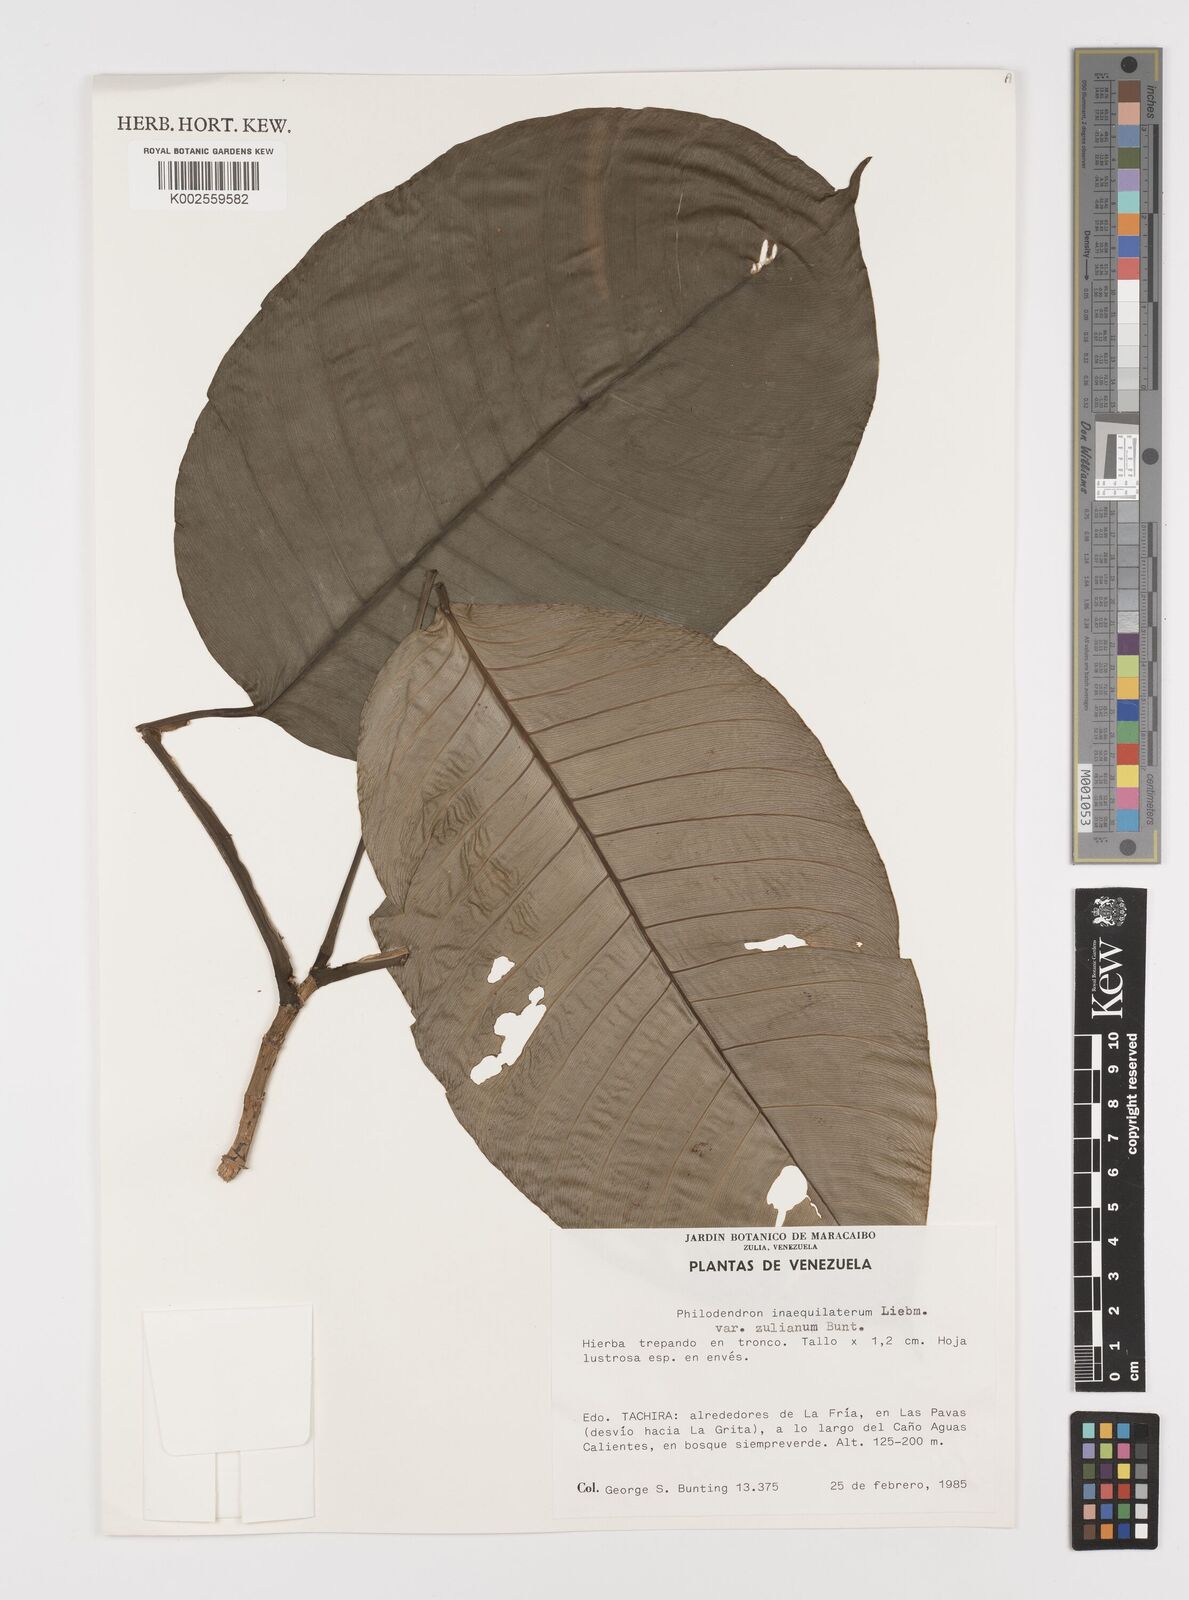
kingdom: Plantae
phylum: Tracheophyta
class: Liliopsida
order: Alismatales
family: Araceae
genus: Philodendron
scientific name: Philodendron inaequilaterum
